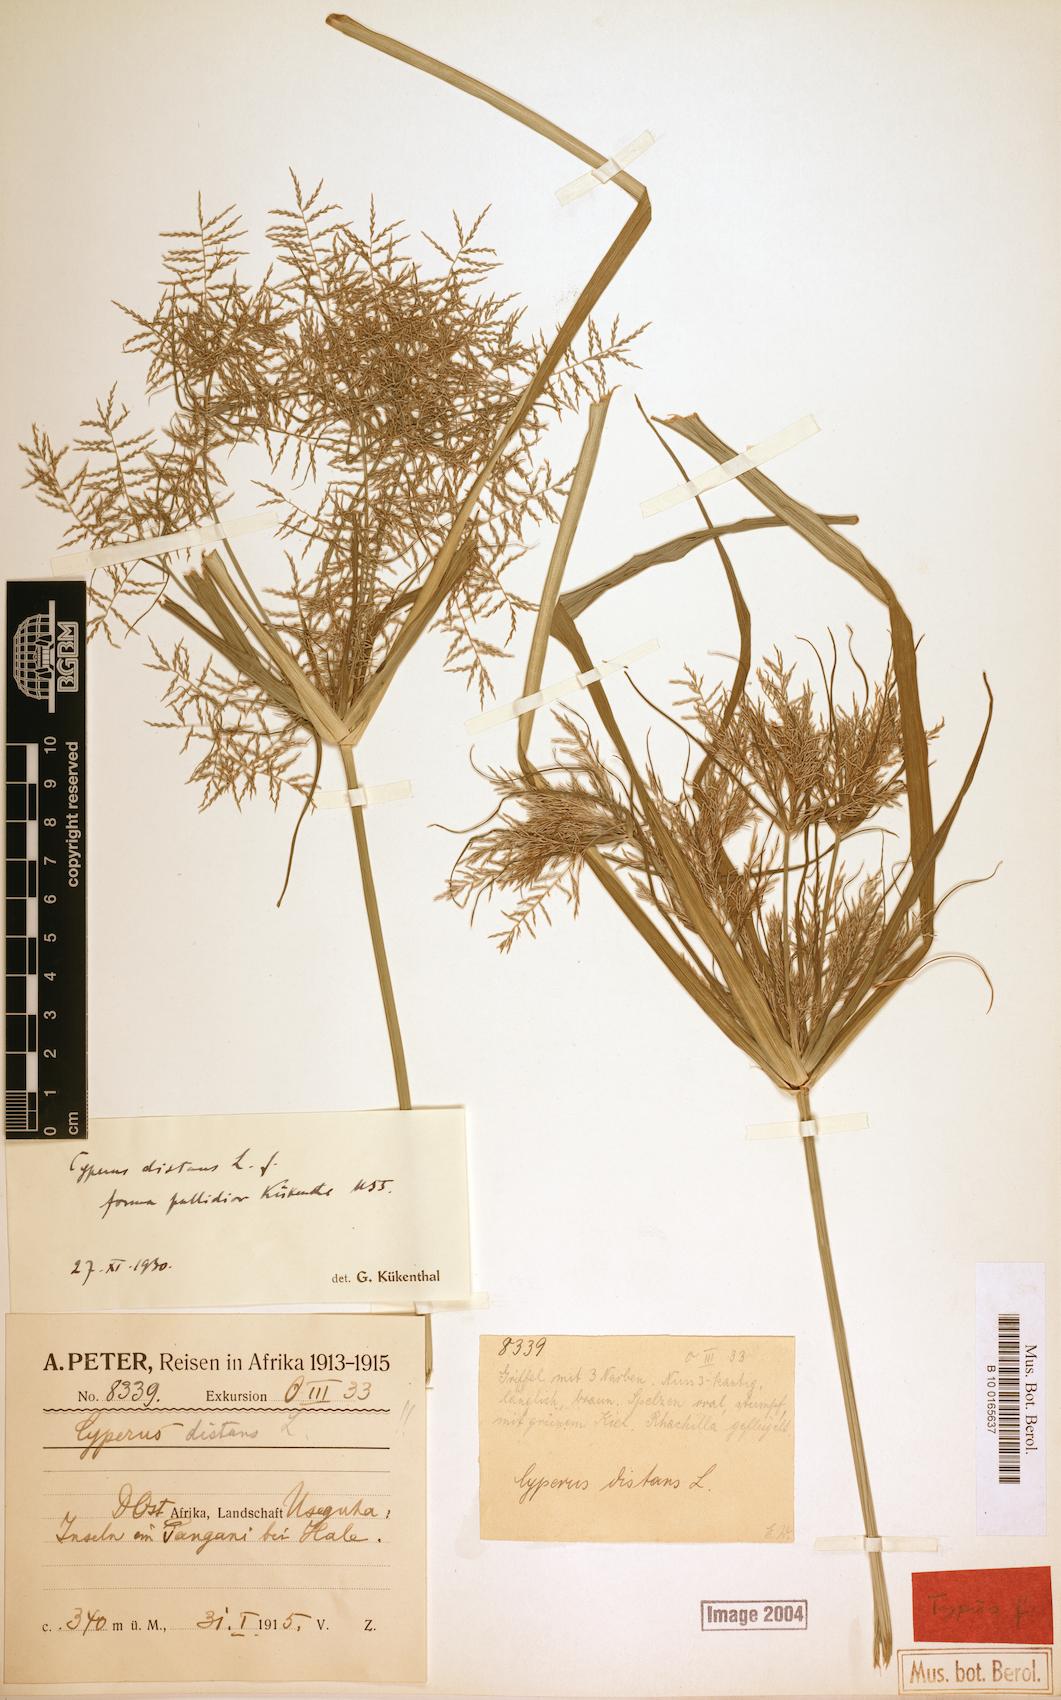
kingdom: Plantae
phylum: Tracheophyta
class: Liliopsida
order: Poales
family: Cyperaceae
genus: Cyperus
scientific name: Cyperus distans
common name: Slender cyperus
